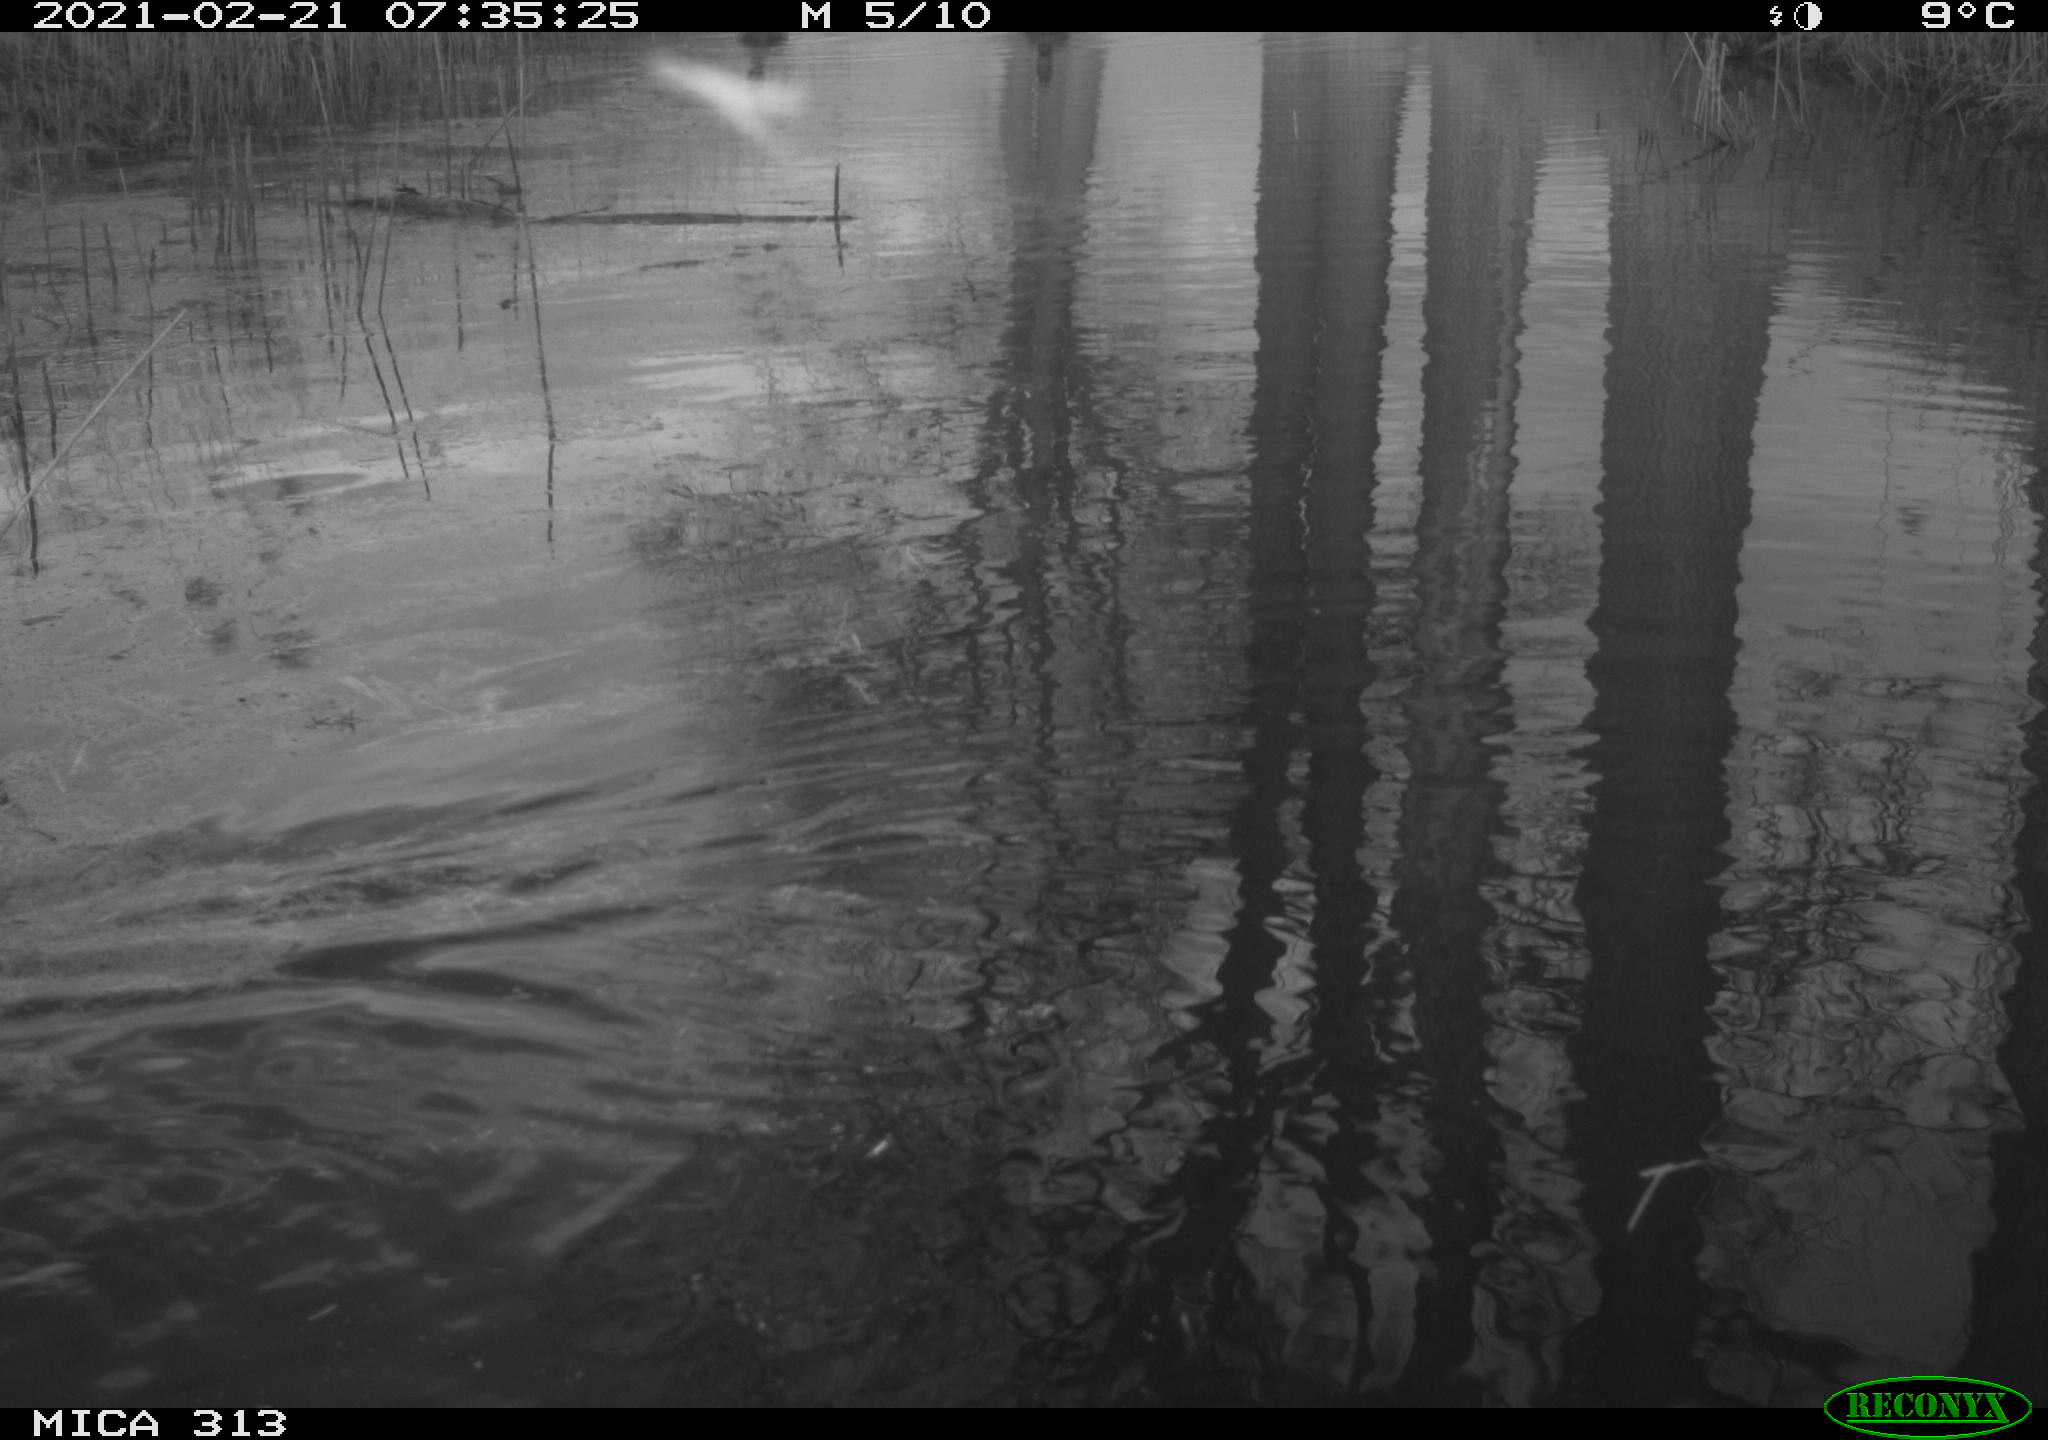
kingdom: Animalia
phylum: Chordata
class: Aves
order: Gruiformes
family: Rallidae
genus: Gallinula
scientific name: Gallinula chloropus
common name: Common moorhen
